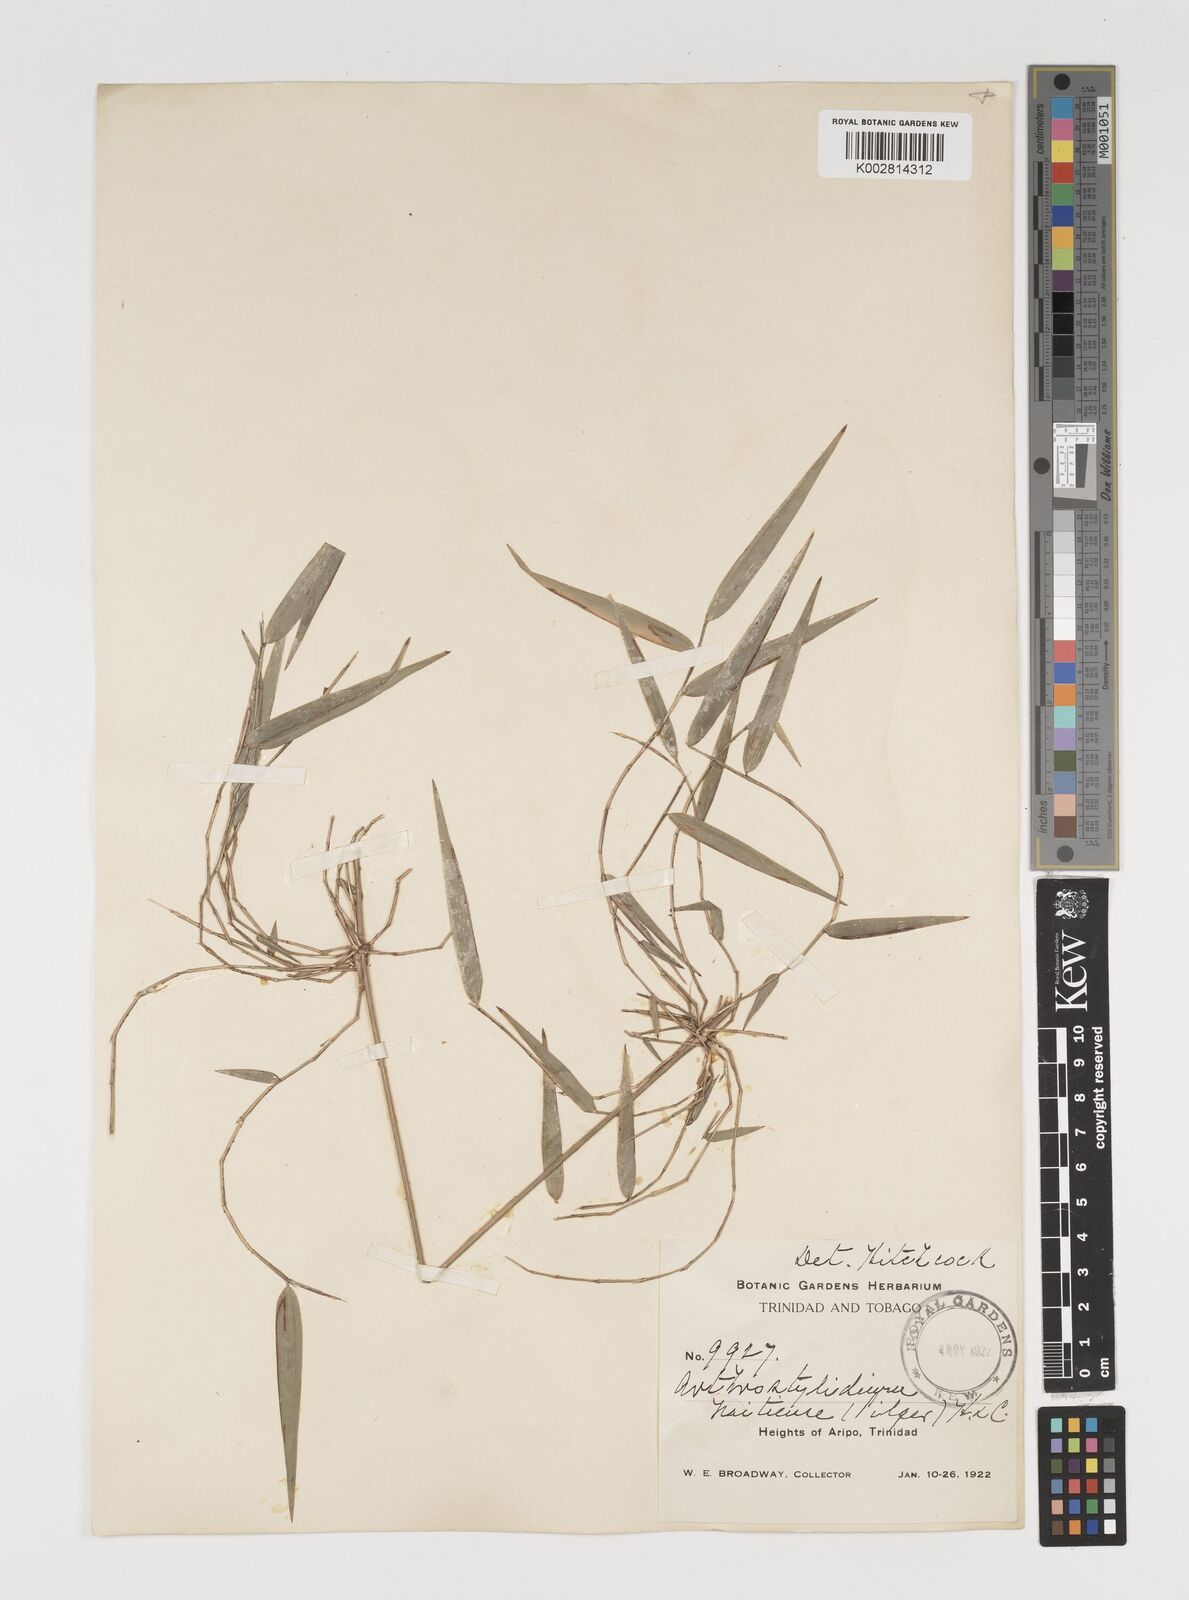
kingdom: Plantae
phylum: Tracheophyta
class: Liliopsida
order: Poales
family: Poaceae
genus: Arthrostylidium
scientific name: Arthrostylidium
